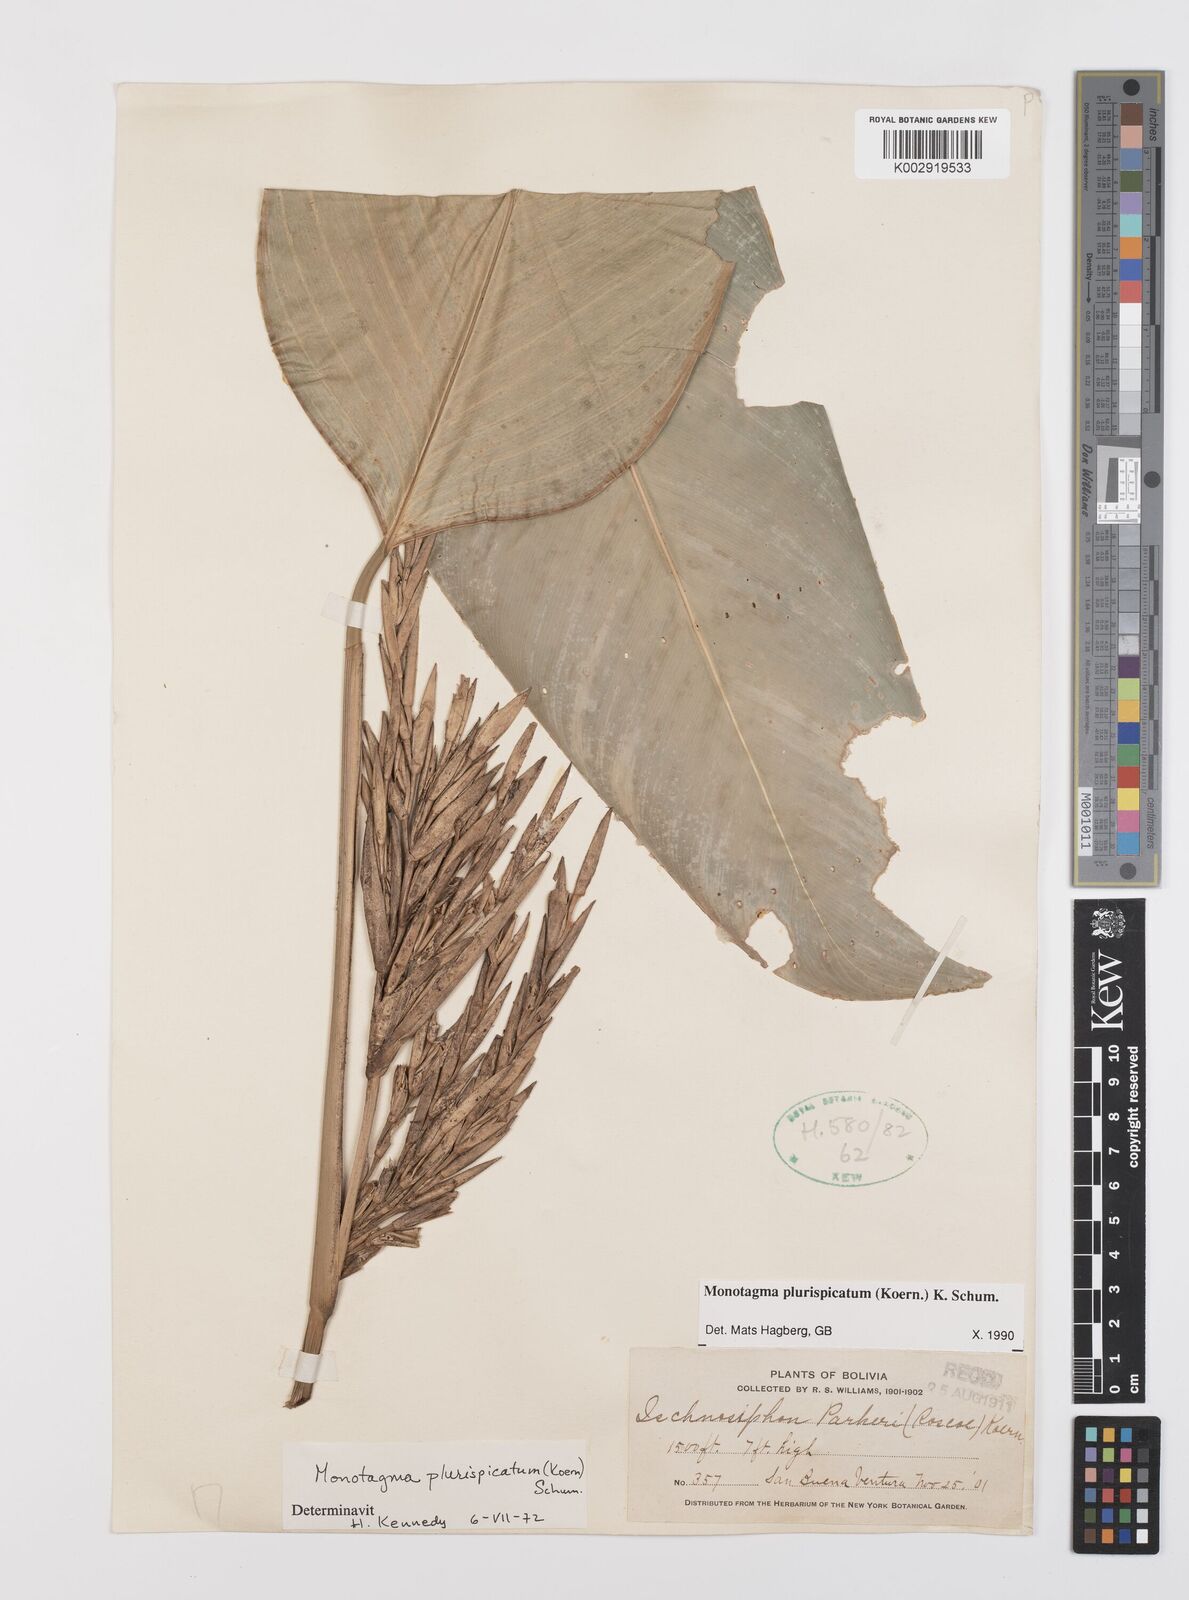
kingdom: Plantae
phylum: Tracheophyta
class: Liliopsida
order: Zingiberales
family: Marantaceae
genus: Monotagma
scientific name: Monotagma plurispicatum
